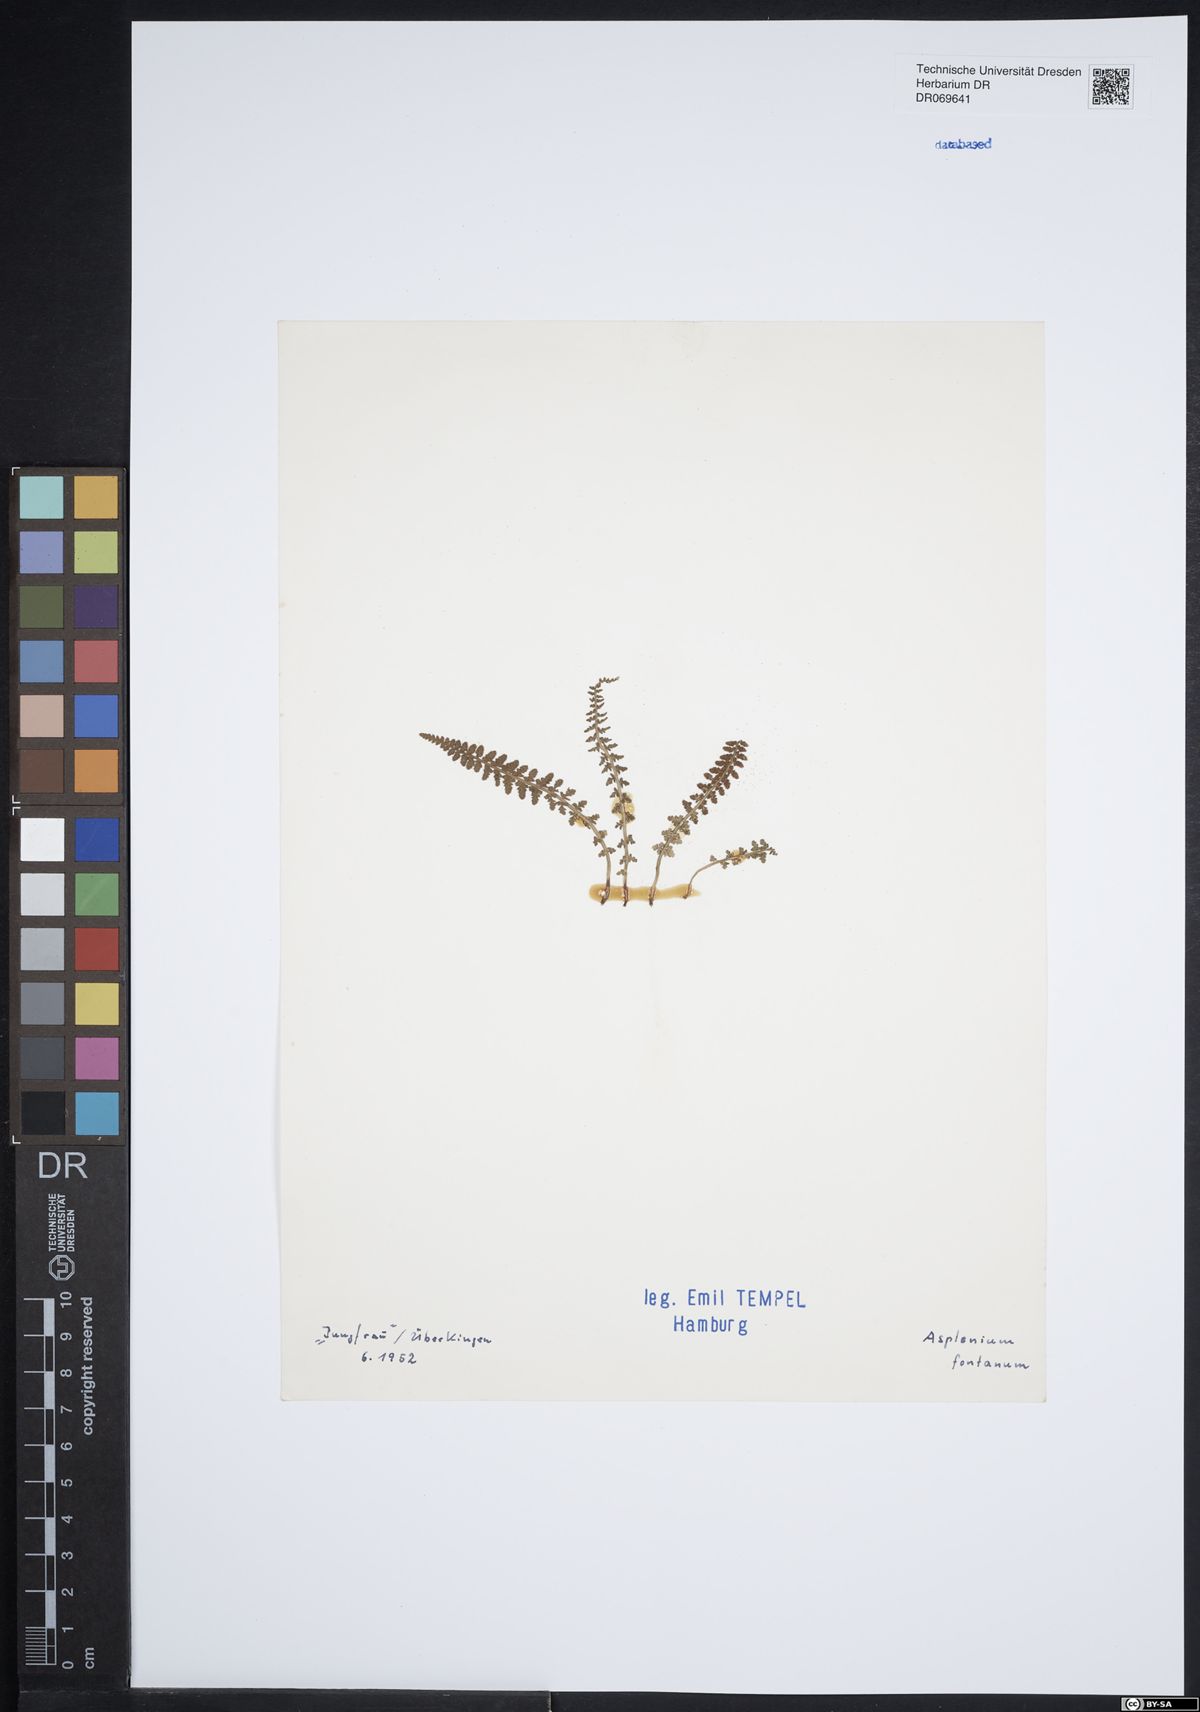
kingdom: Plantae
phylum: Tracheophyta
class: Polypodiopsida
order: Polypodiales
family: Aspleniaceae
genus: Asplenium
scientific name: Asplenium fontanum
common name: Fountain spleenwort
